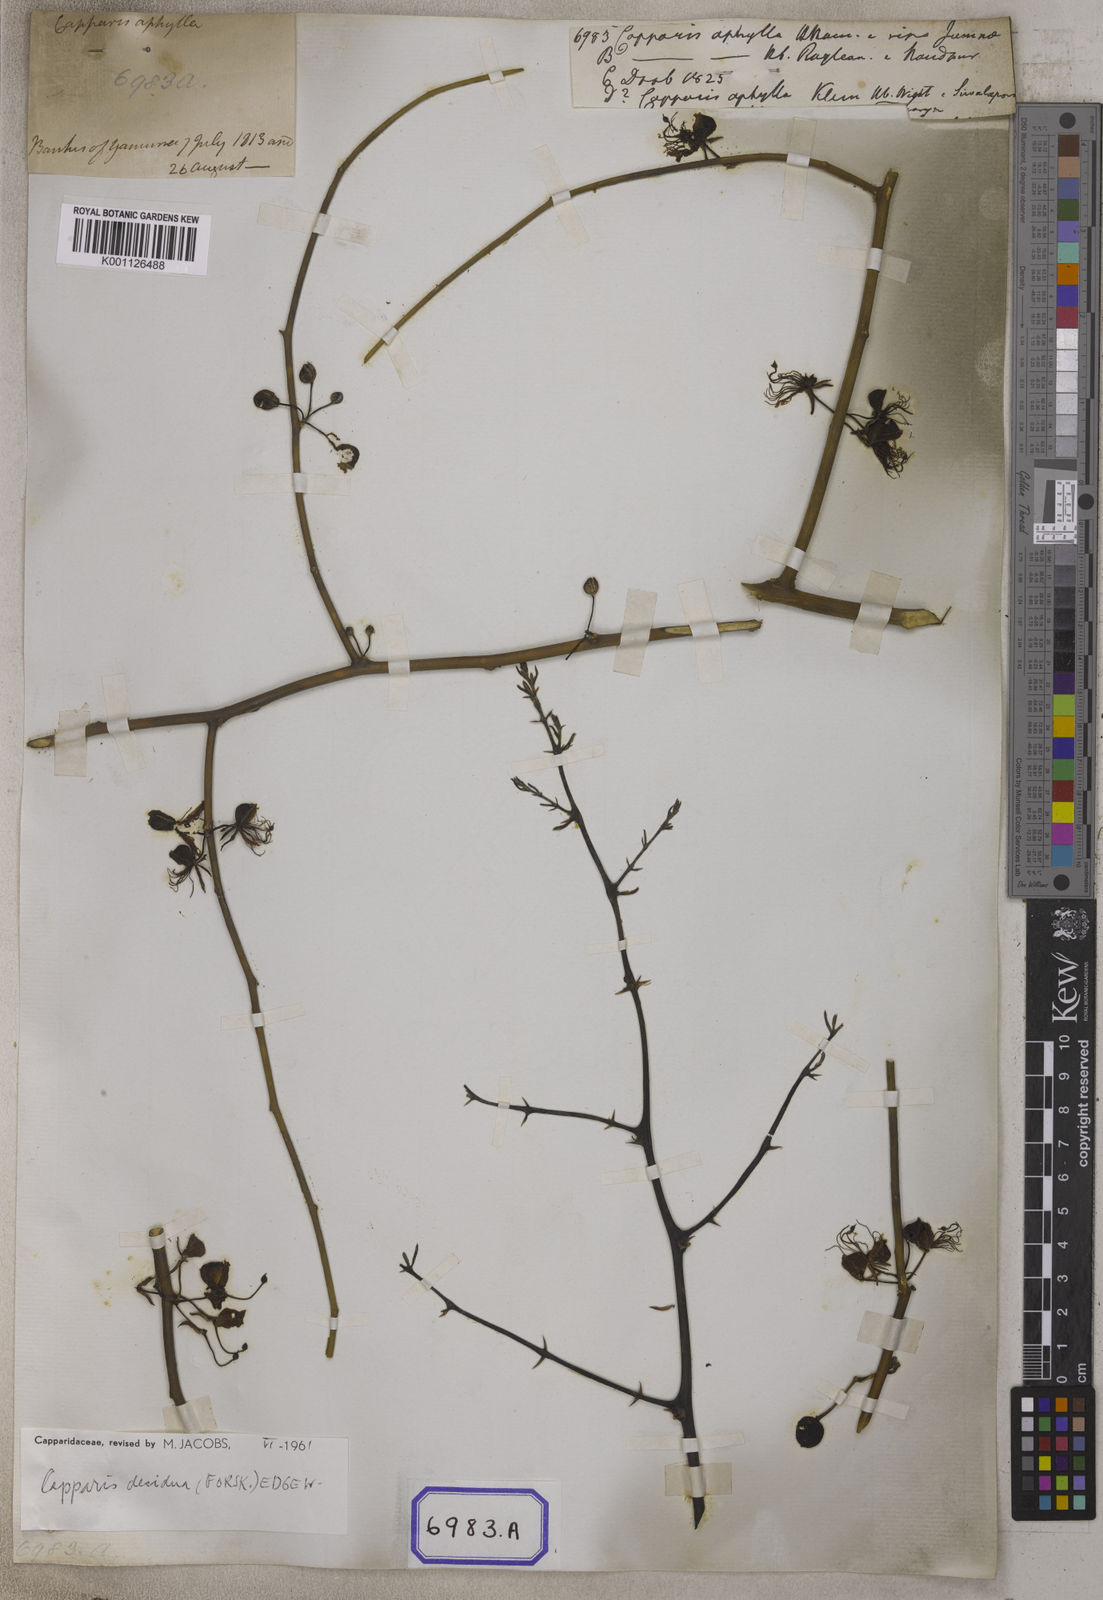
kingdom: Plantae
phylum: Tracheophyta
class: Magnoliopsida
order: Brassicales
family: Capparaceae
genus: Capparis
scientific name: Capparis decidua
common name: Sodada
